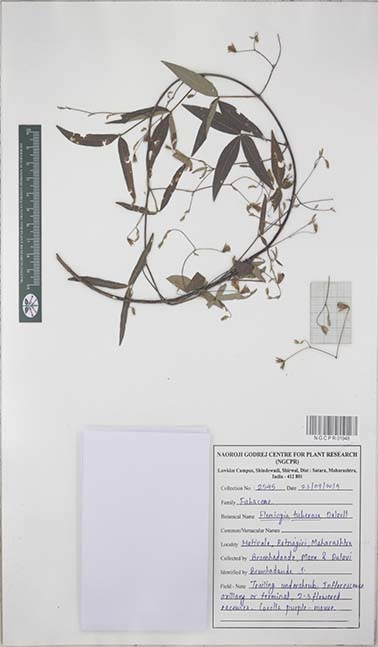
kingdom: Plantae
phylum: Tracheophyta
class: Magnoliopsida
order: Fabales
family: Fabaceae
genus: Flemingia
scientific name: Flemingia tuberosa
